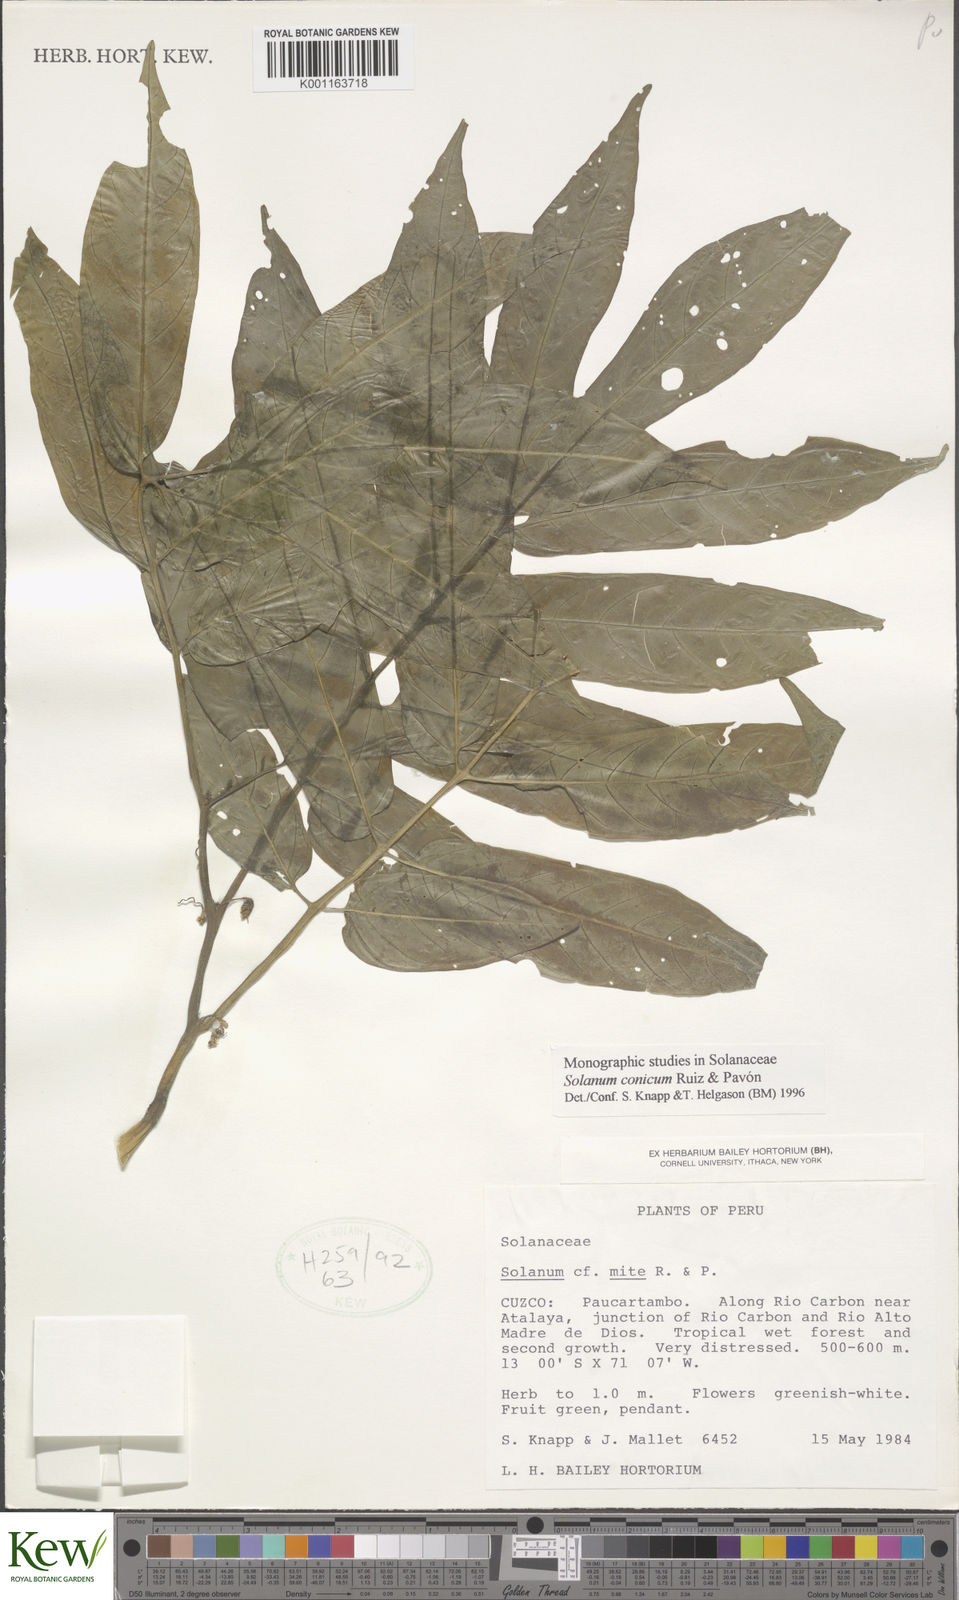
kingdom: Plantae
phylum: Tracheophyta
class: Magnoliopsida
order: Solanales
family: Solanaceae
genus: Solanum
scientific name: Solanum conicum
